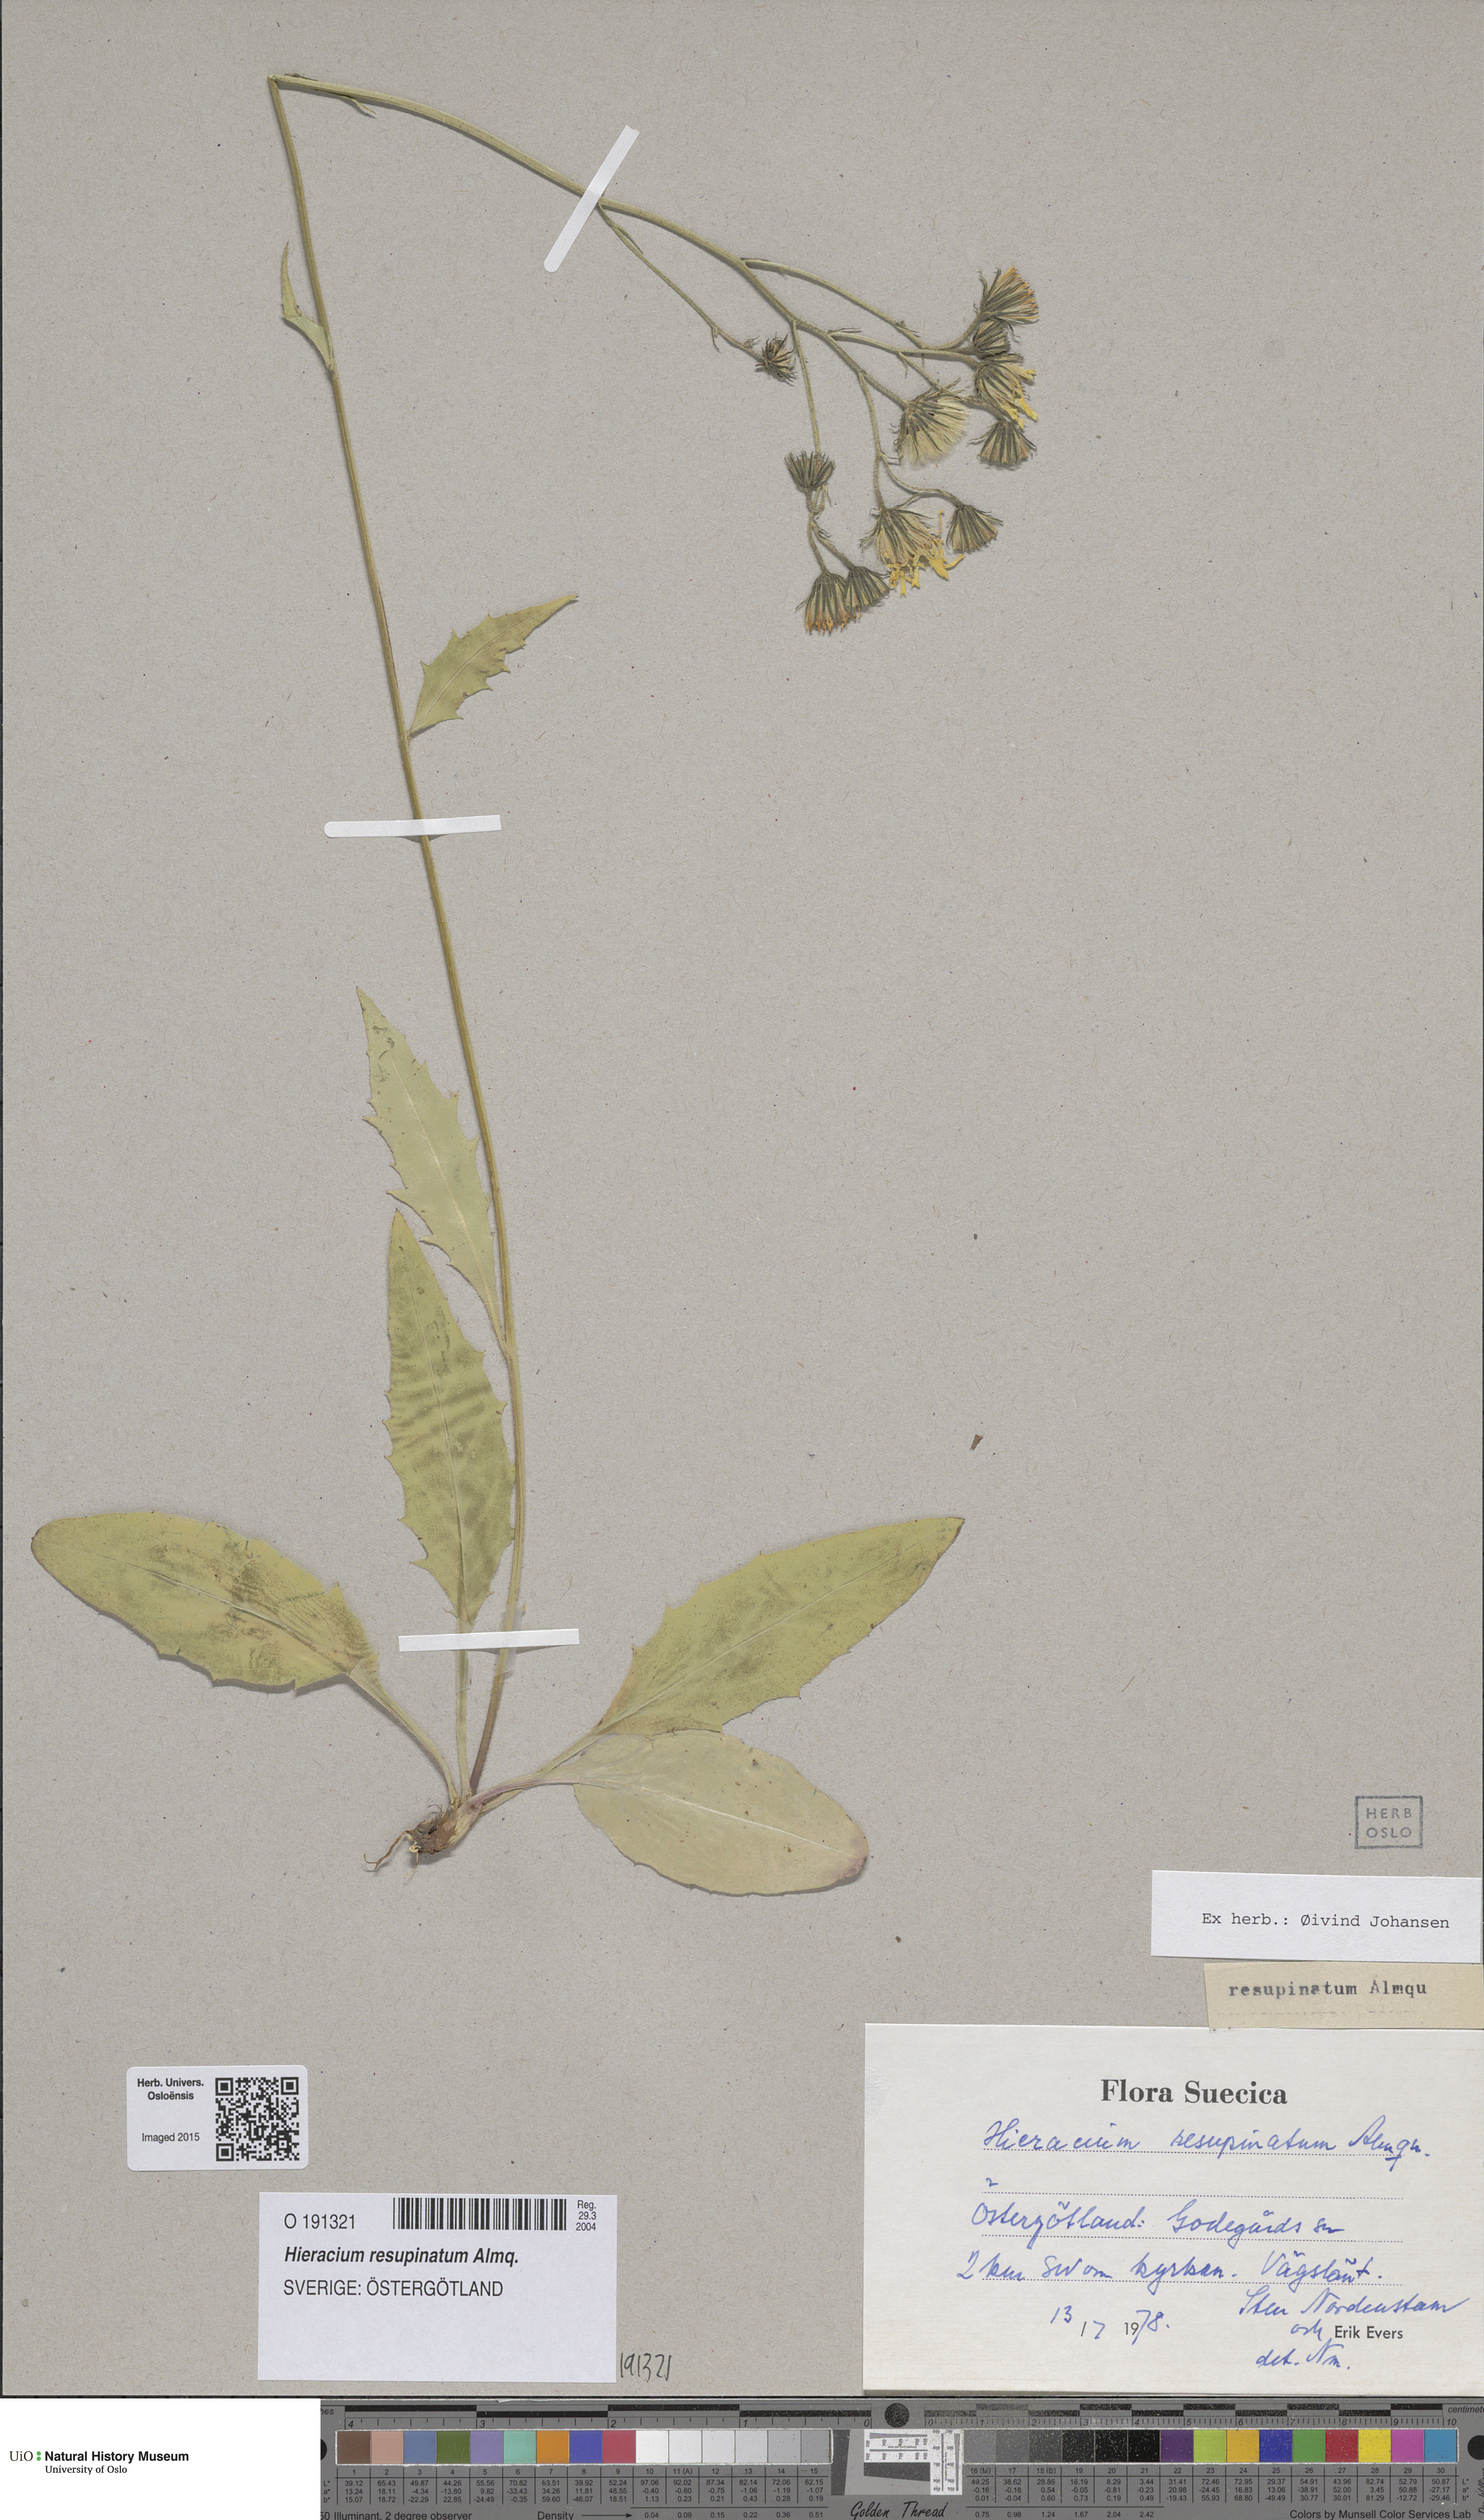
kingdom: Plantae
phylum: Tracheophyta
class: Magnoliopsida
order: Asterales
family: Asteraceae
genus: Hieracium
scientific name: Hieracium resupinatum
